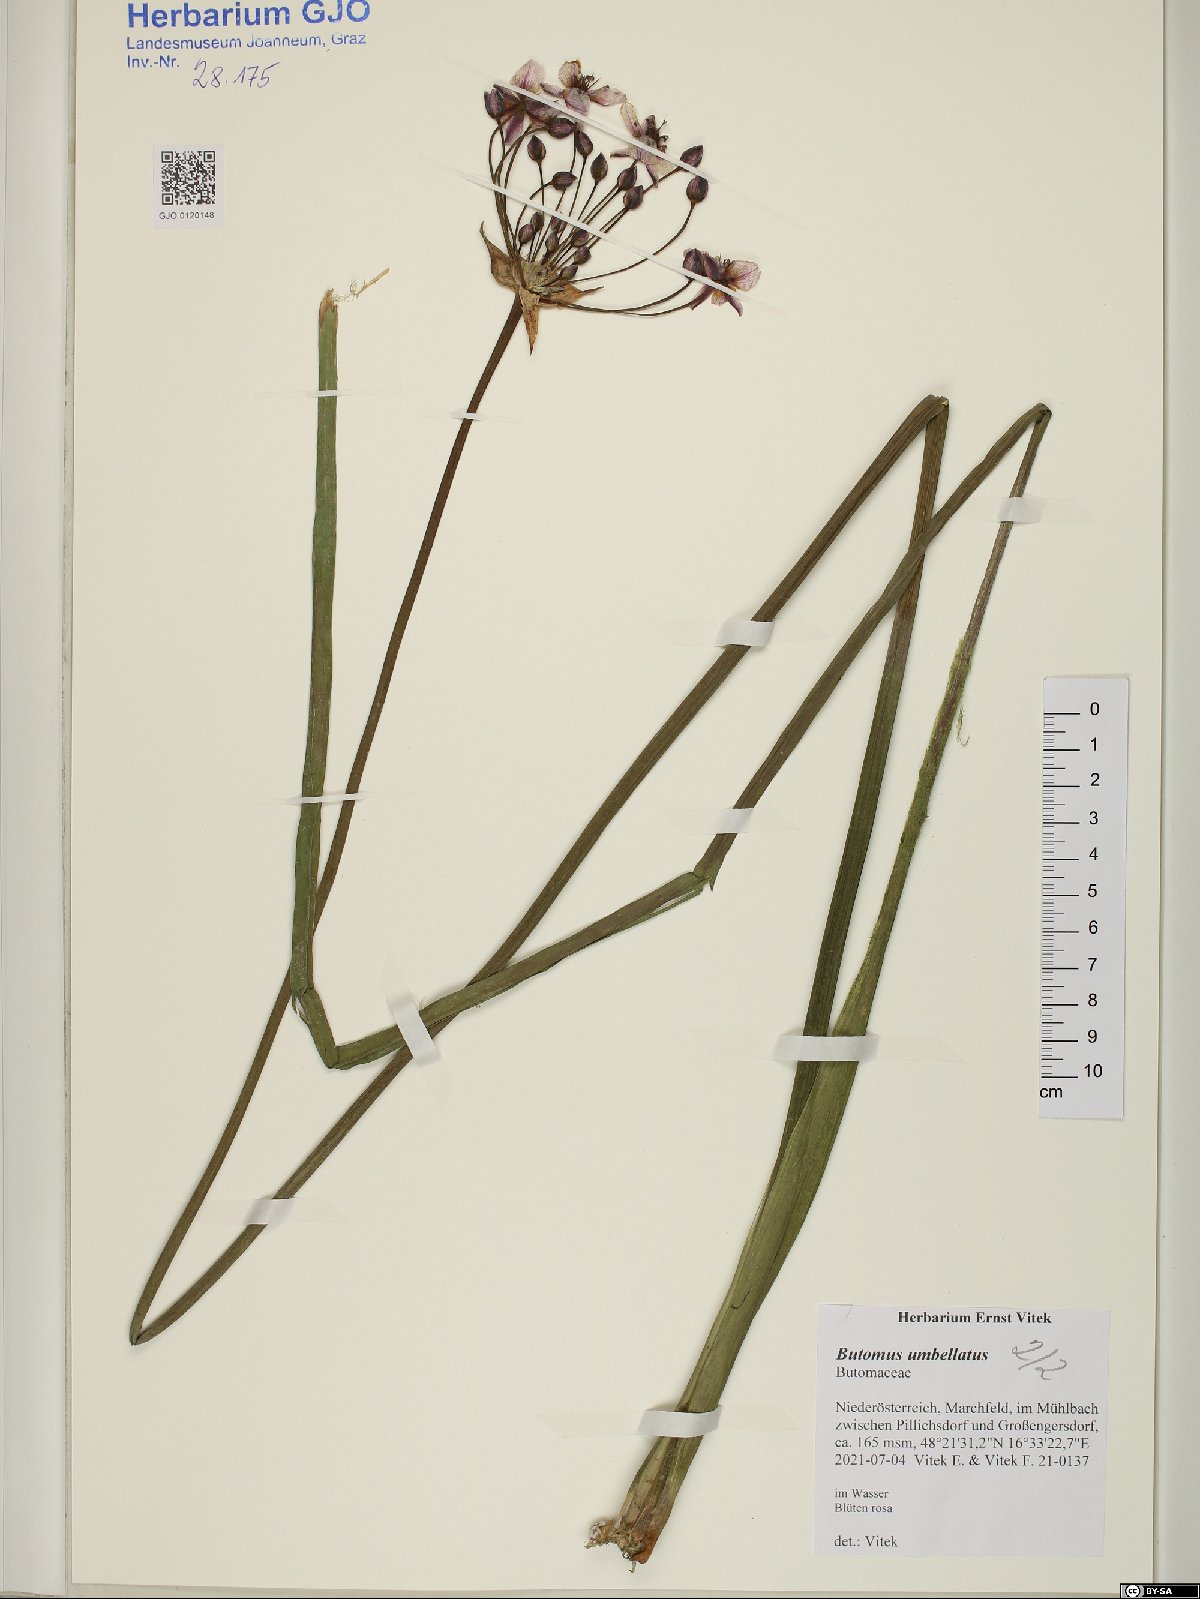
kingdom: Plantae
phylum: Tracheophyta
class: Liliopsida
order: Alismatales
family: Butomaceae
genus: Butomus
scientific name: Butomus umbellatus
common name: Flowering-rush
